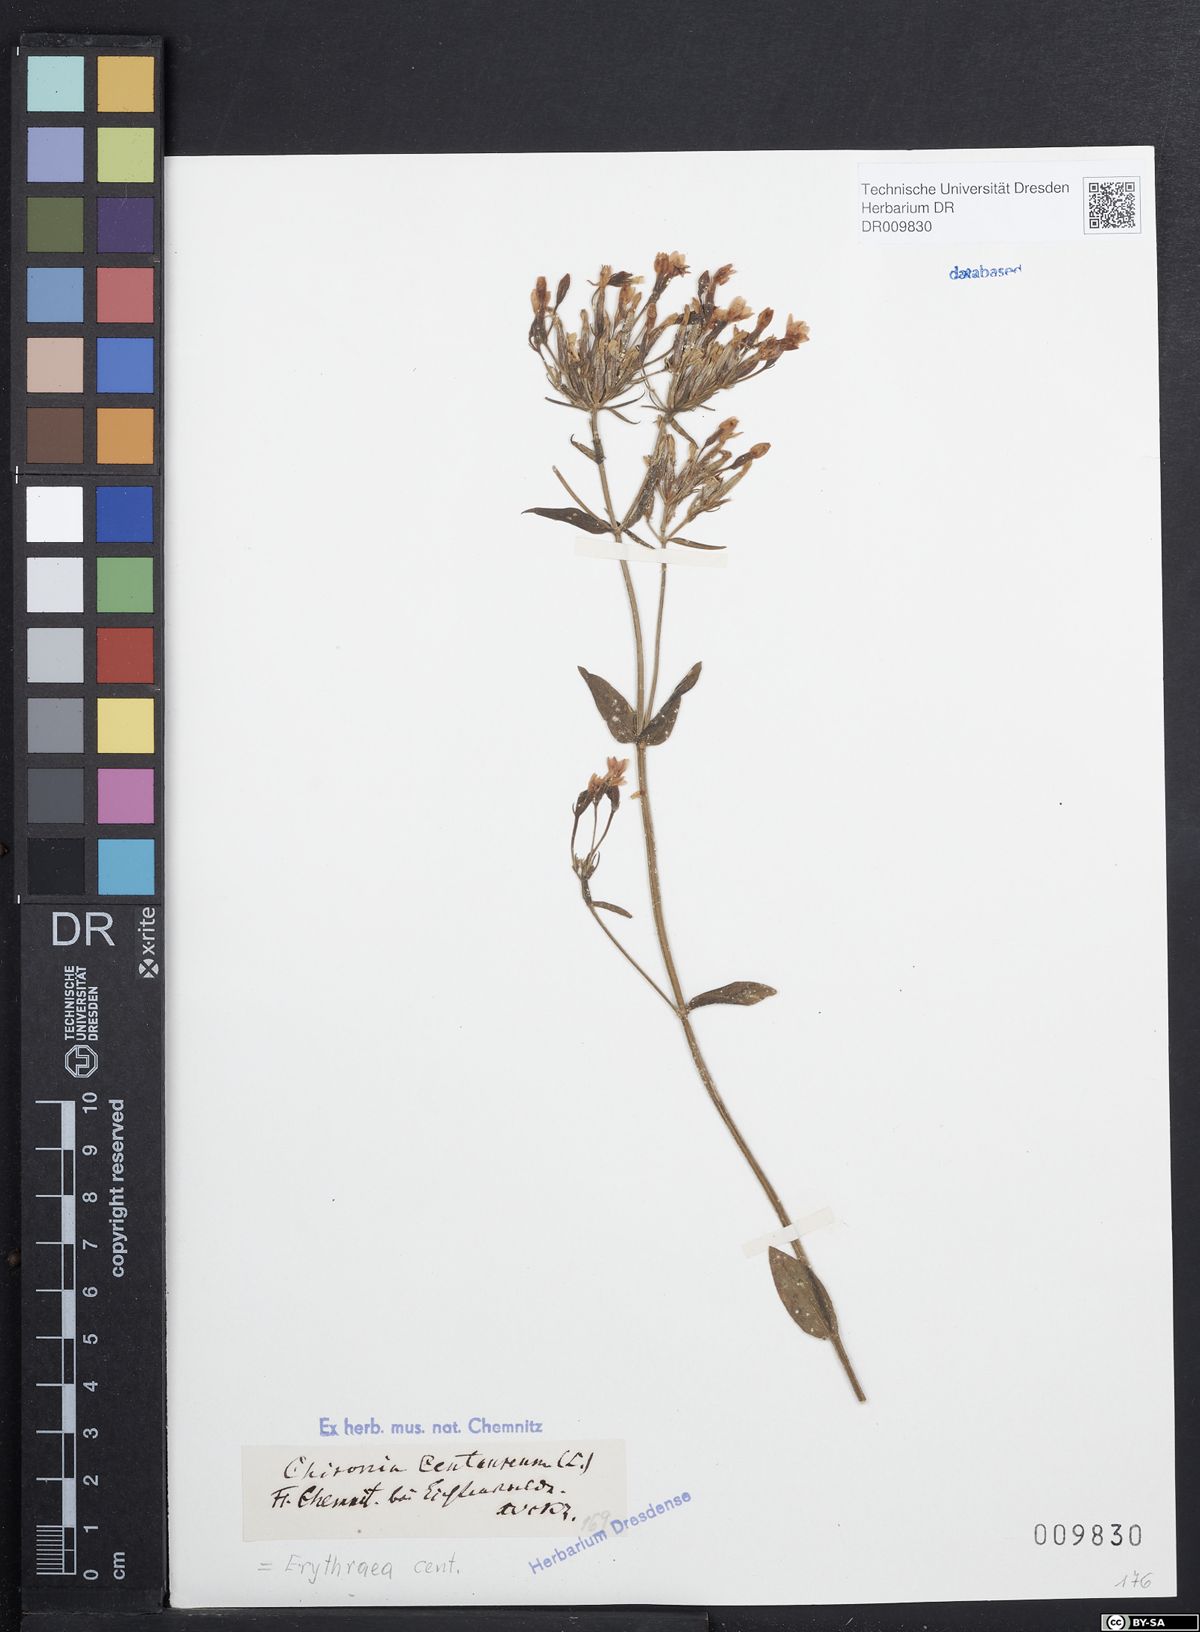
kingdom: Plantae
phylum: Tracheophyta
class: Magnoliopsida
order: Gentianales
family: Gentianaceae
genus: Centaurium
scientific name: Centaurium erythraea
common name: Common centaury
